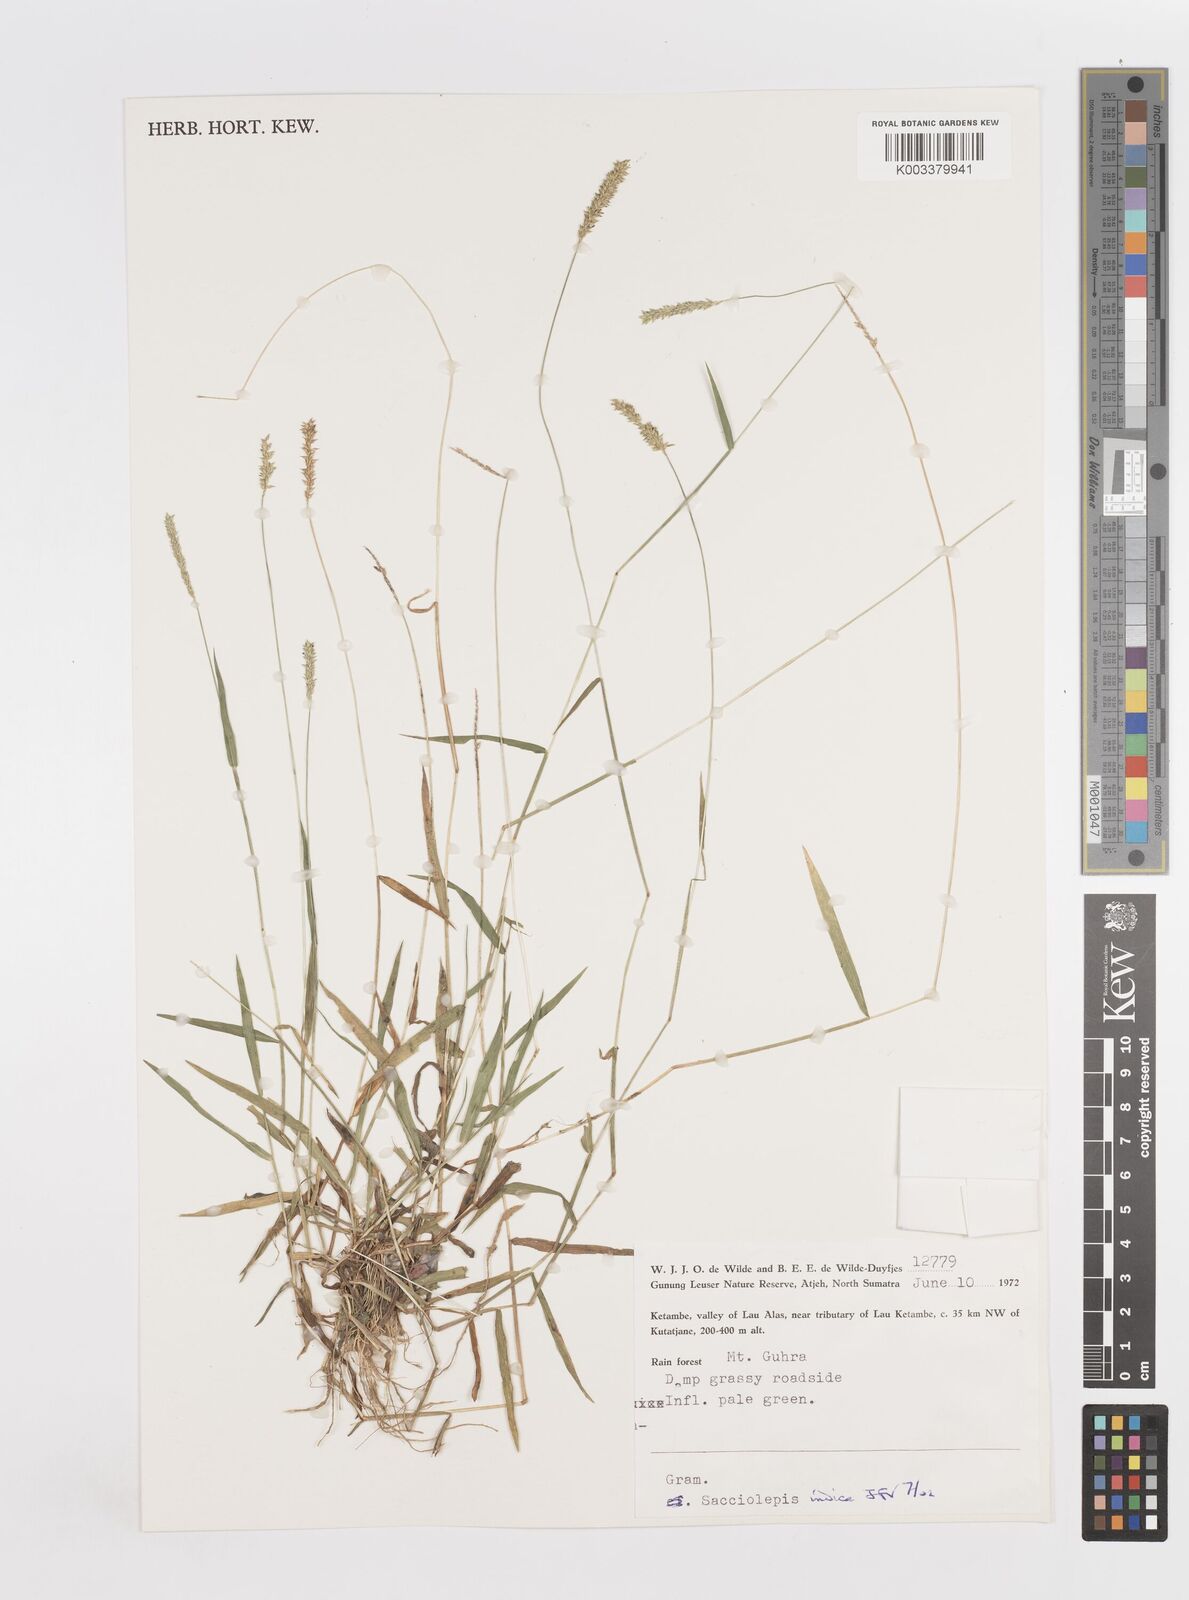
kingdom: Plantae
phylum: Tracheophyta
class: Liliopsida
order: Poales
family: Poaceae
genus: Sacciolepis
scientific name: Sacciolepis indica
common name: Glenwoodgrass
